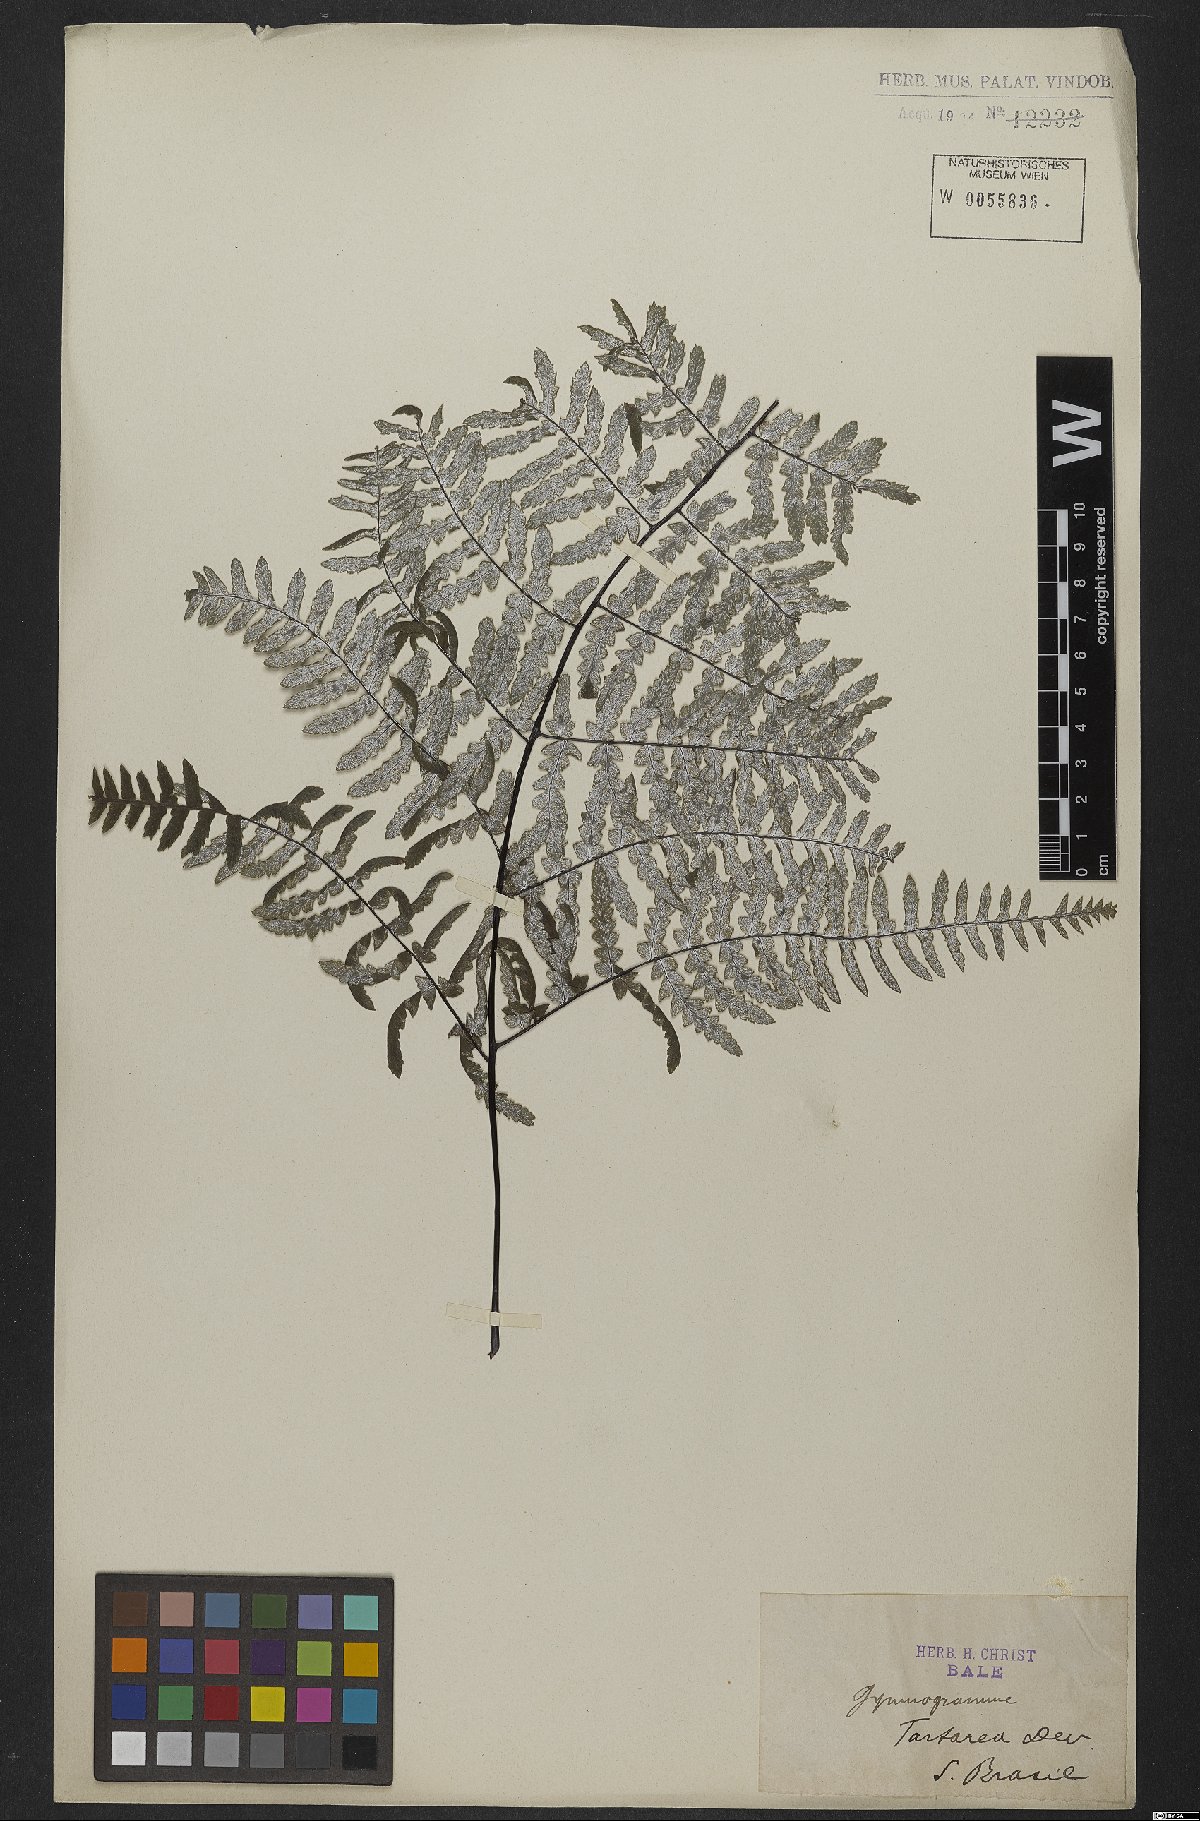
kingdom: Plantae
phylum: Tracheophyta
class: Polypodiopsida
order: Polypodiales
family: Pteridaceae
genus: Pityrogramma
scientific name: Pityrogramma ebenea
